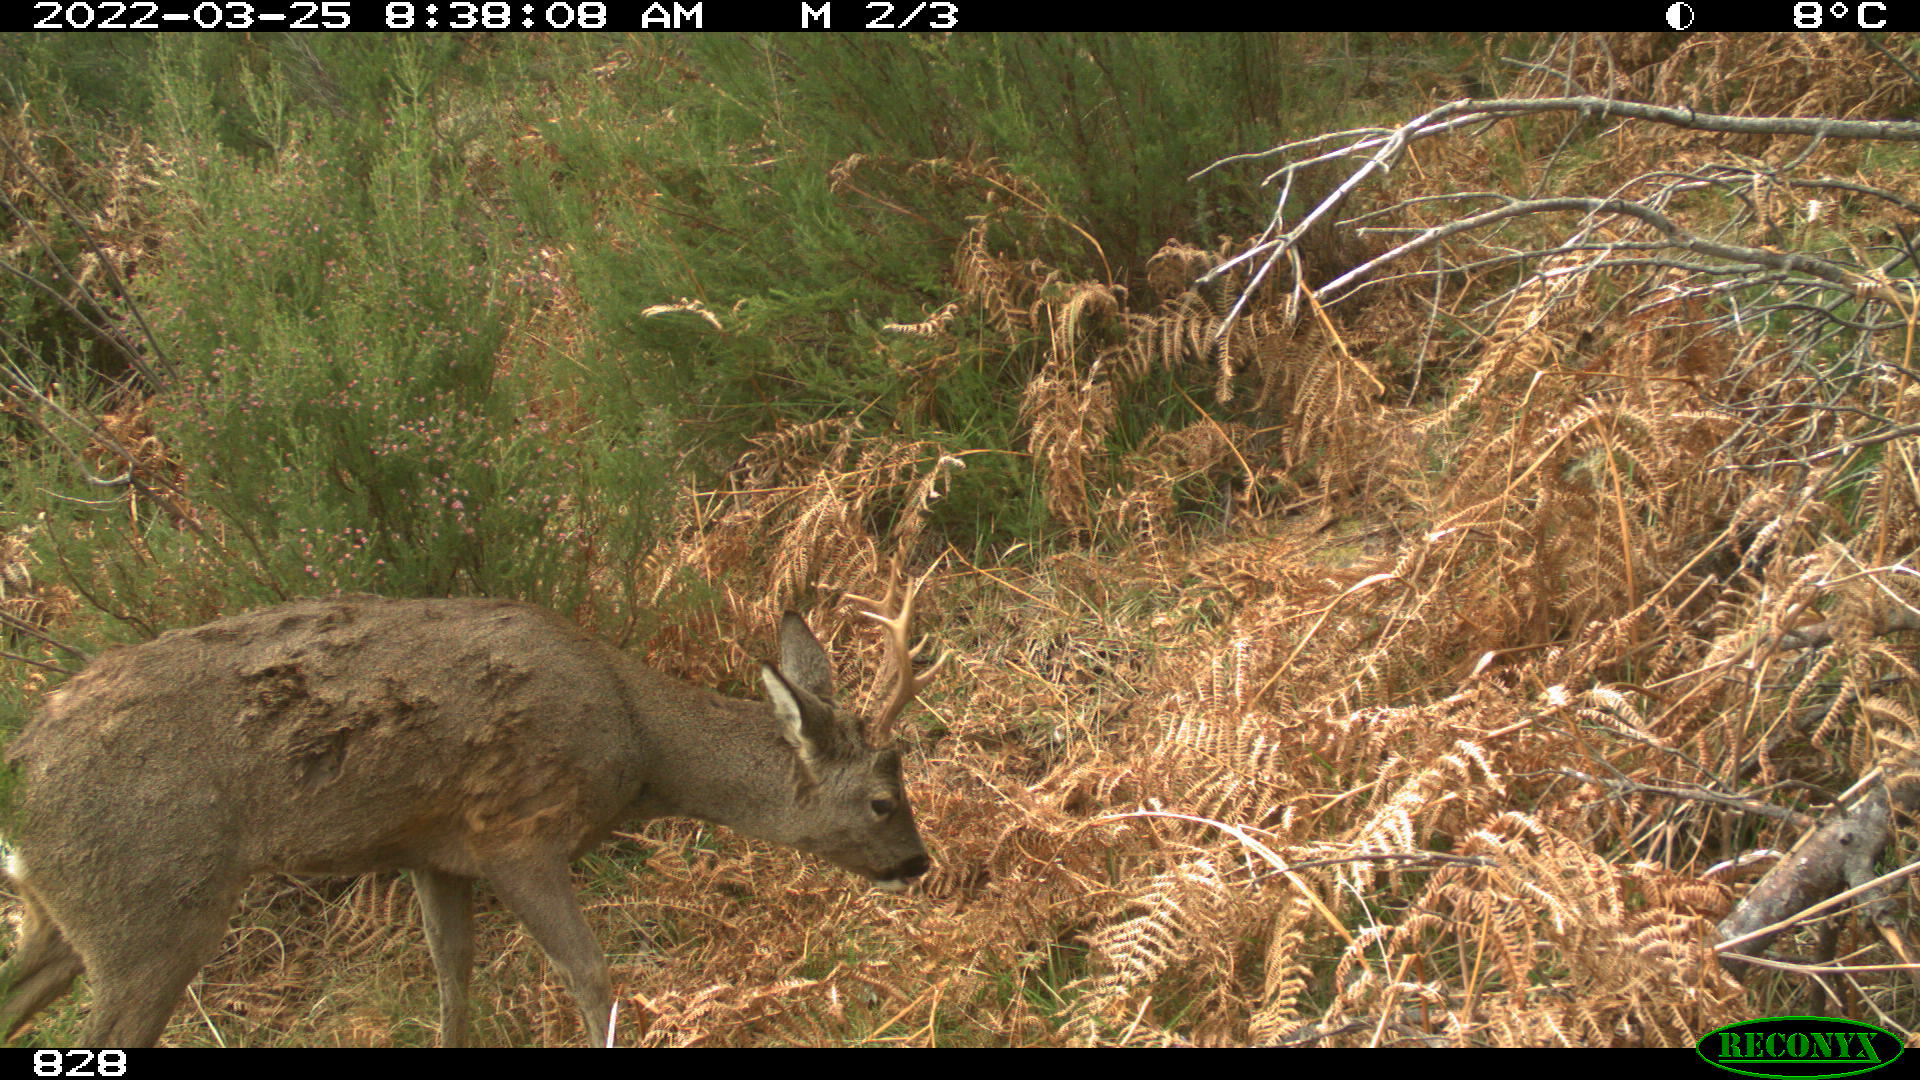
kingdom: Animalia
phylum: Chordata
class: Mammalia
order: Artiodactyla
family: Cervidae
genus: Capreolus
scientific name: Capreolus capreolus
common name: Western roe deer
